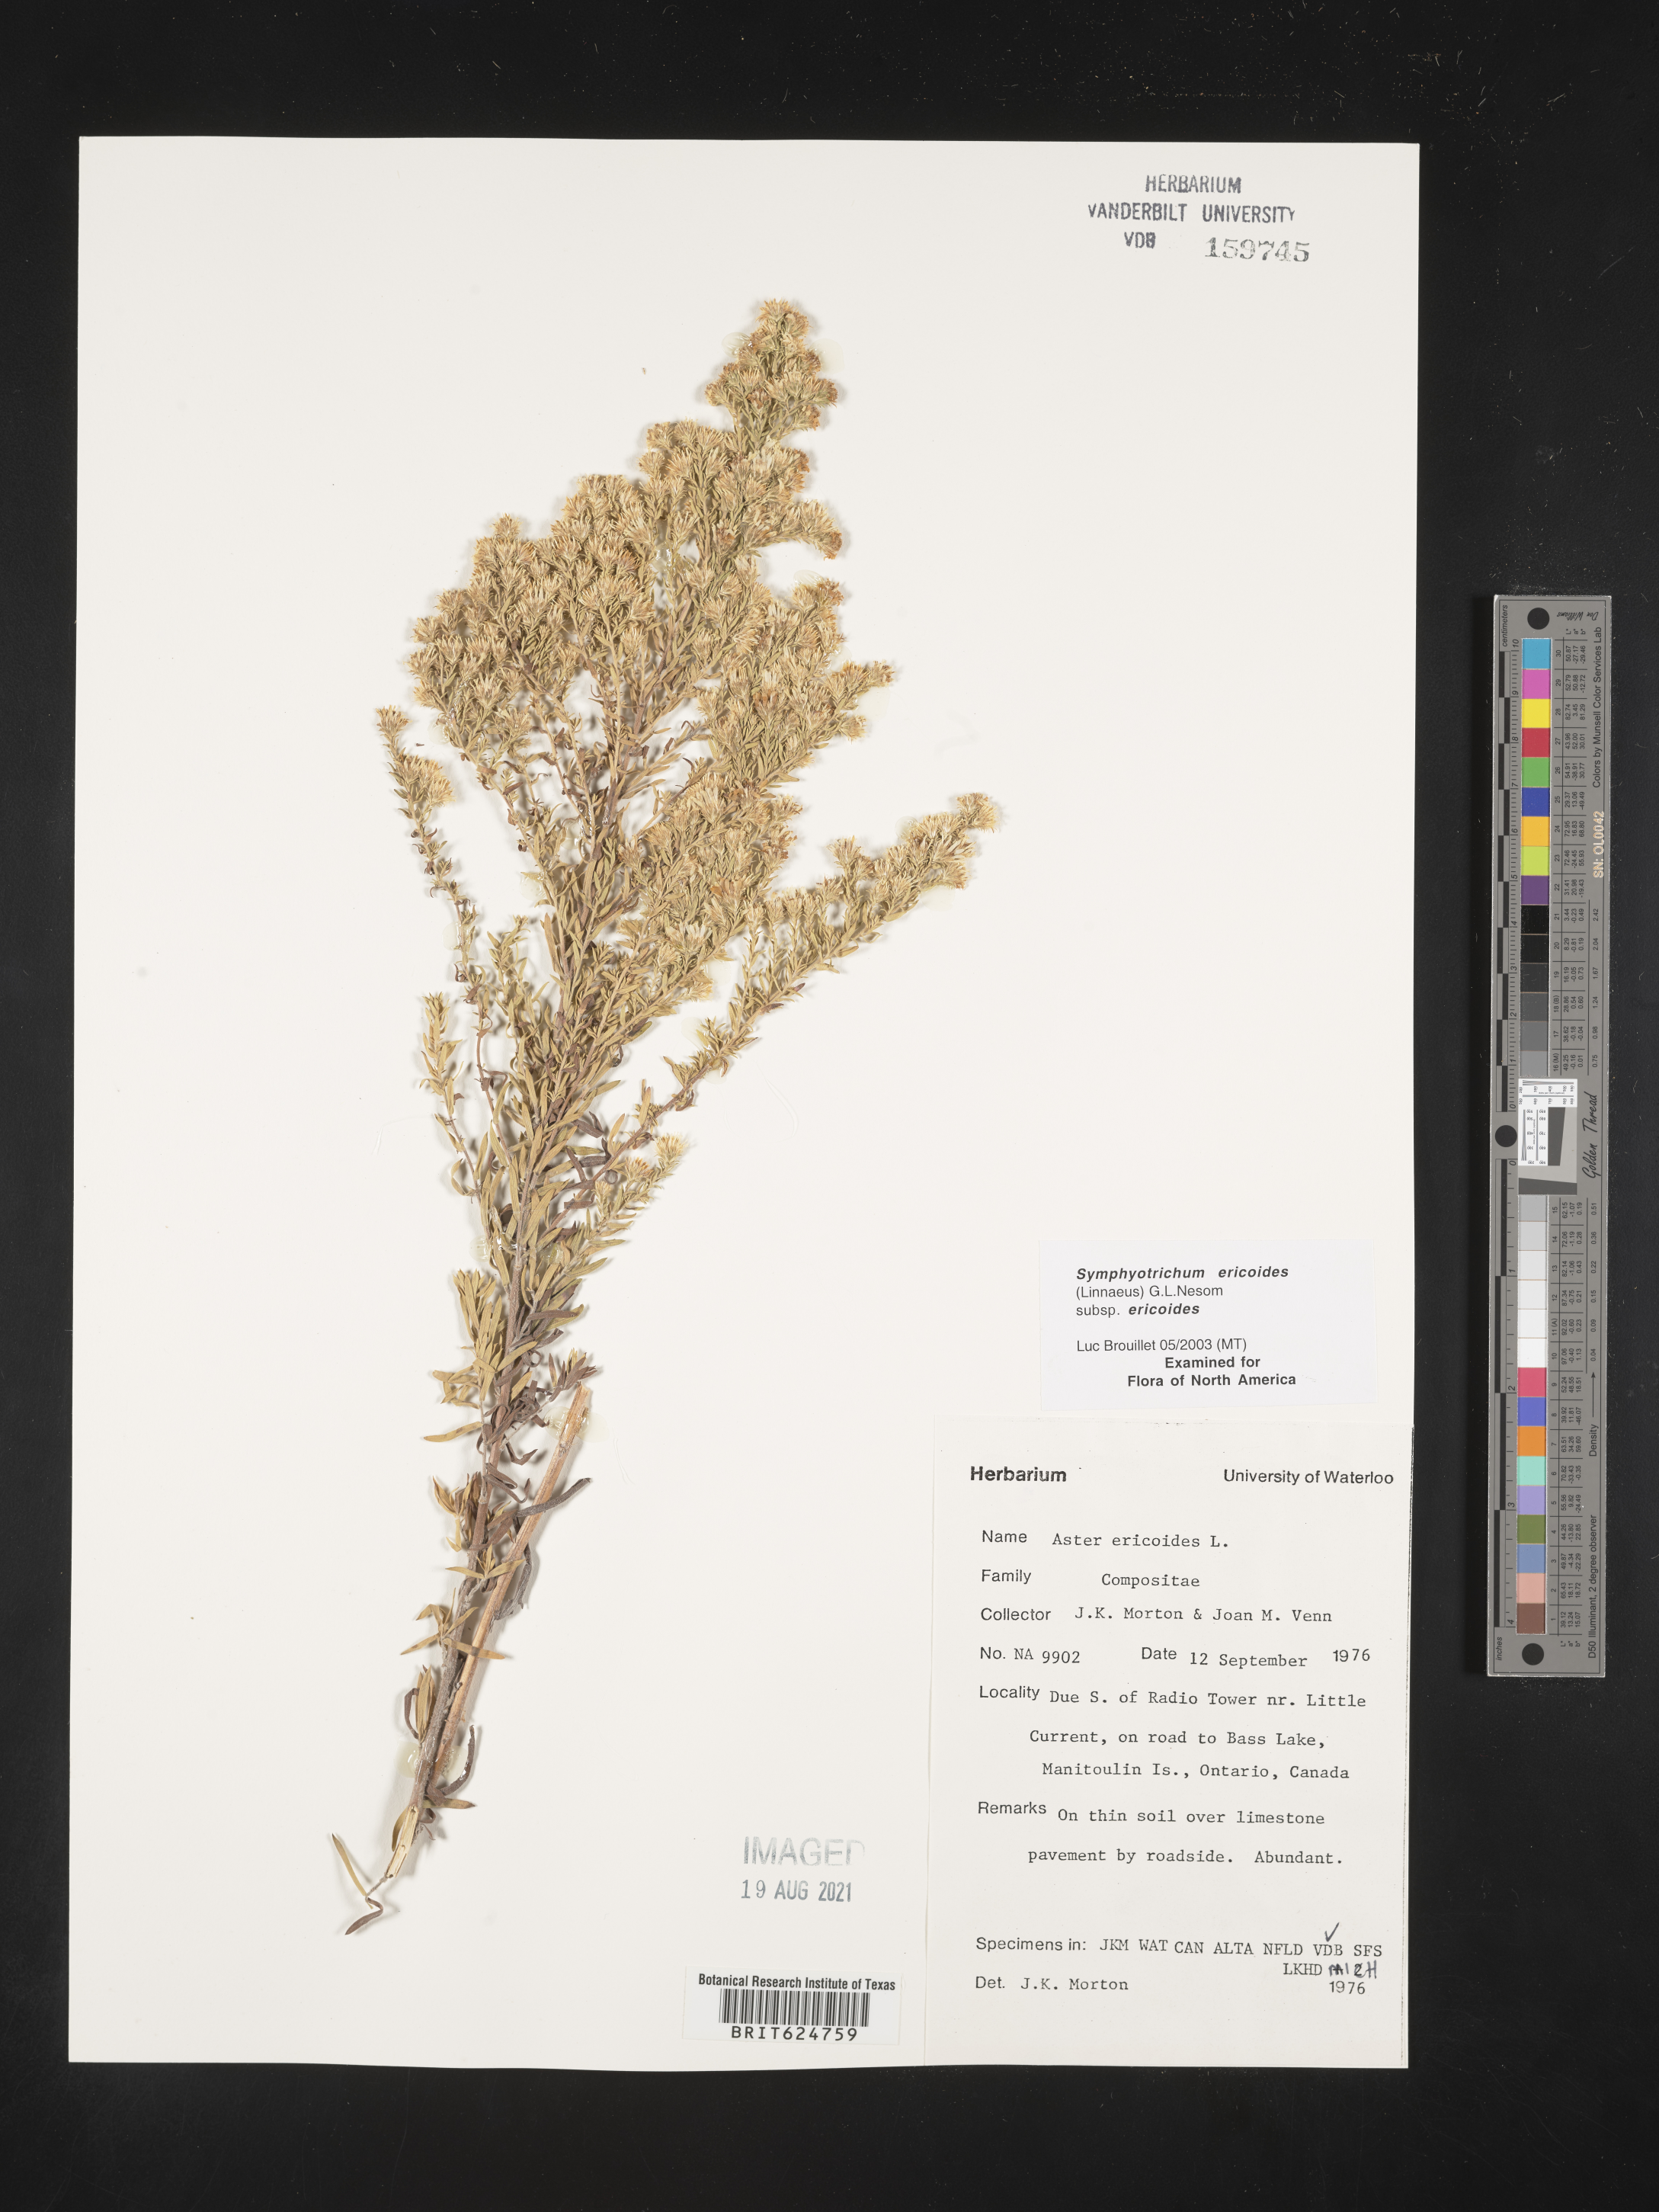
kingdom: Plantae
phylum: Tracheophyta
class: Magnoliopsida
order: Asterales
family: Asteraceae
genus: Symphyotrichum
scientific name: Symphyotrichum ericoides
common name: Heath aster
